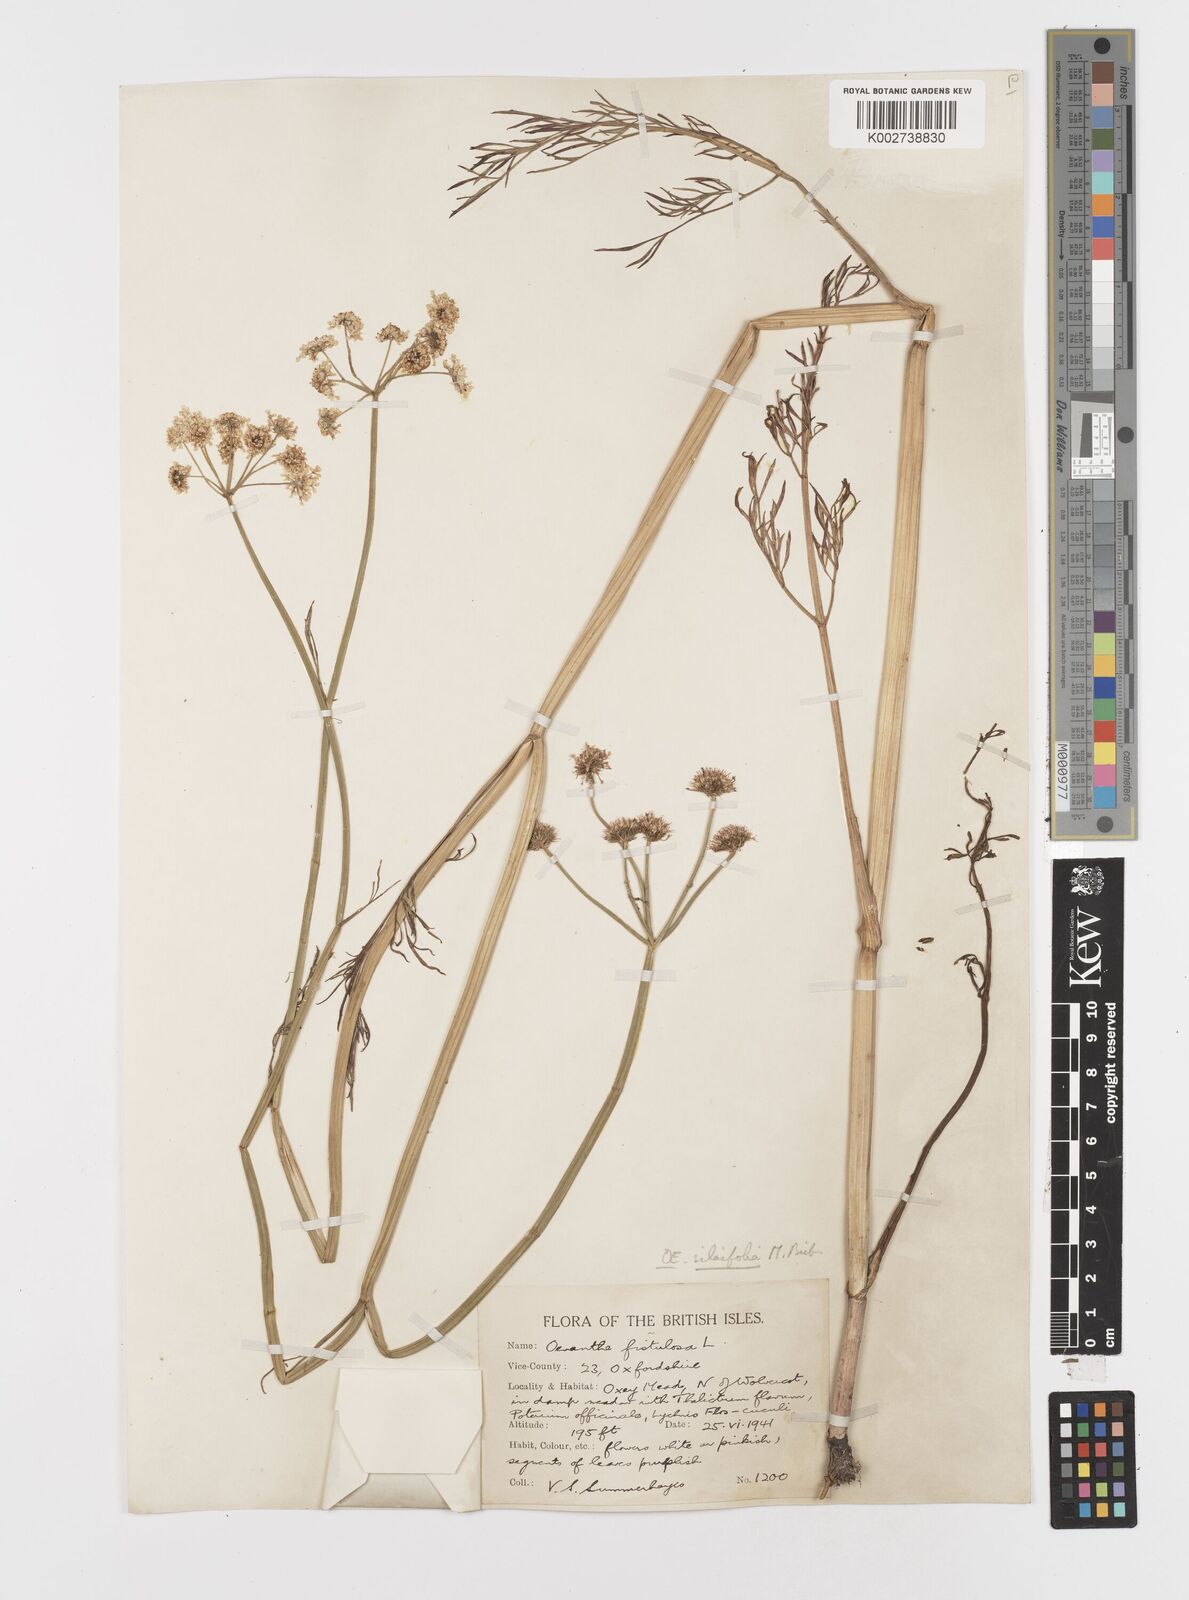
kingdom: Plantae
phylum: Tracheophyta
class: Magnoliopsida
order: Apiales
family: Apiaceae
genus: Oenanthe
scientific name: Oenanthe silaifolia
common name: Narrow-leaved water-dropwort
